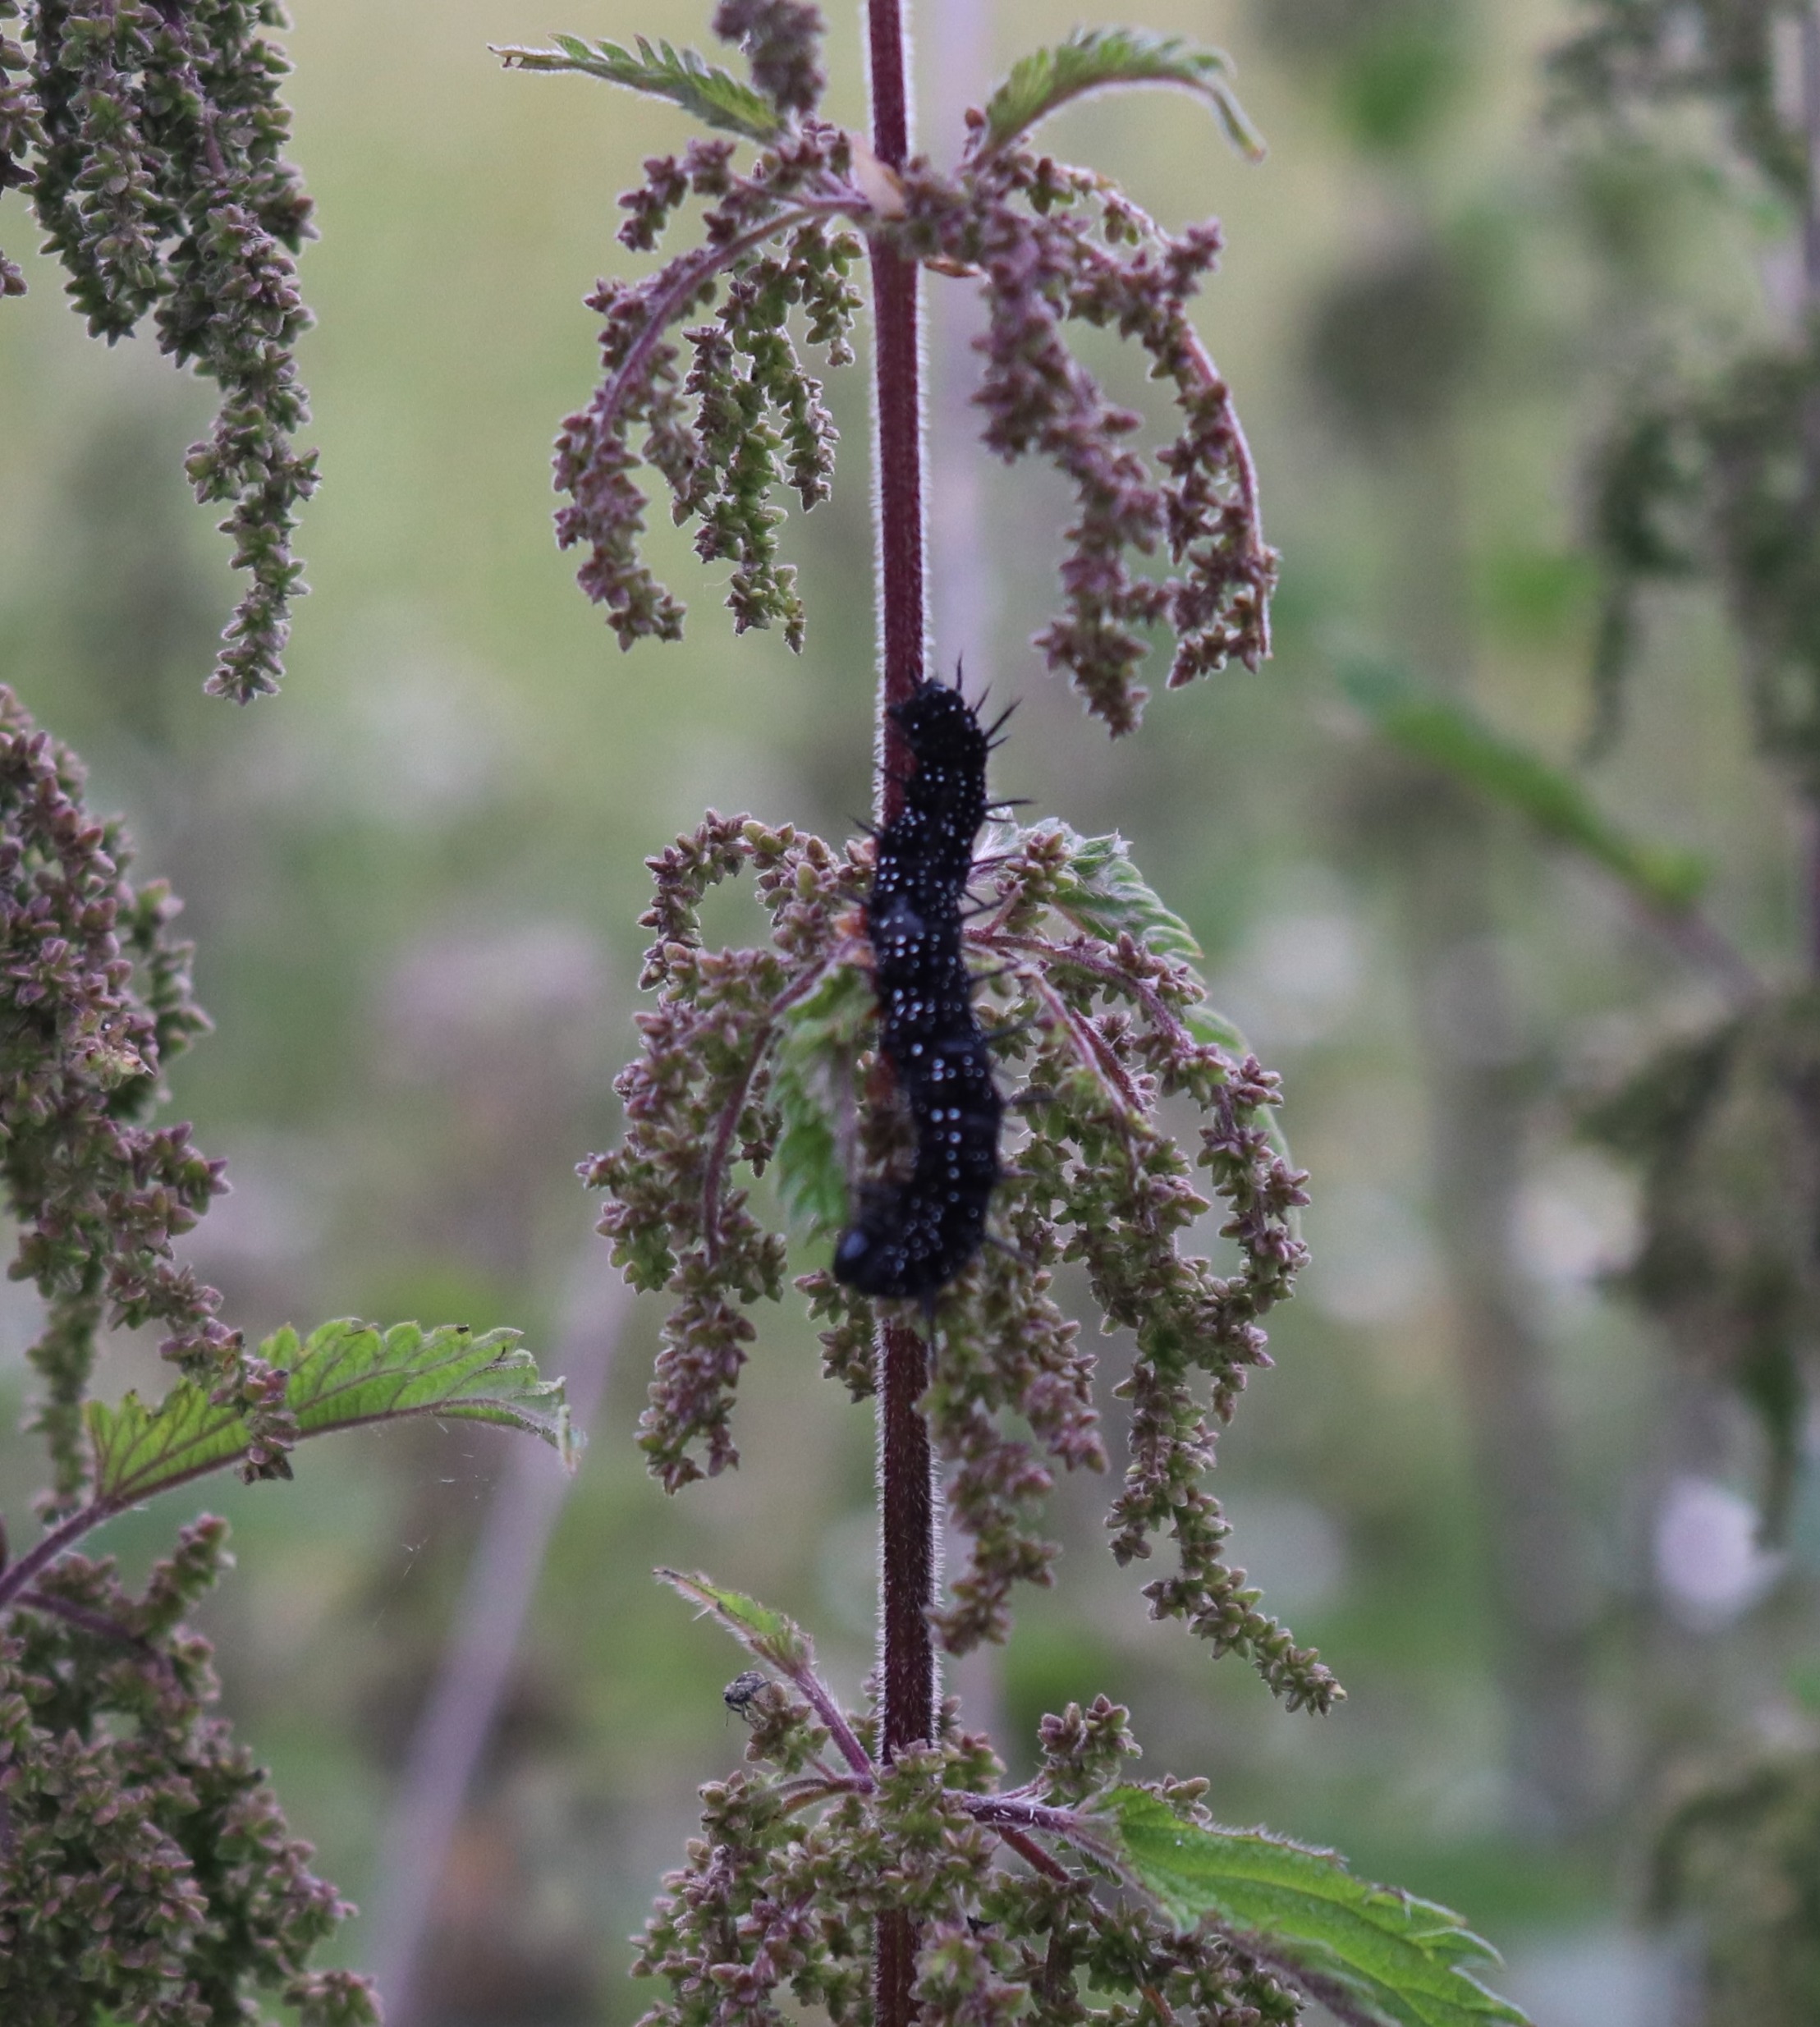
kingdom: Animalia
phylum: Arthropoda
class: Insecta
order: Lepidoptera
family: Nymphalidae
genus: Aglais
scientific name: Aglais io
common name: Dagpåfugleøje
